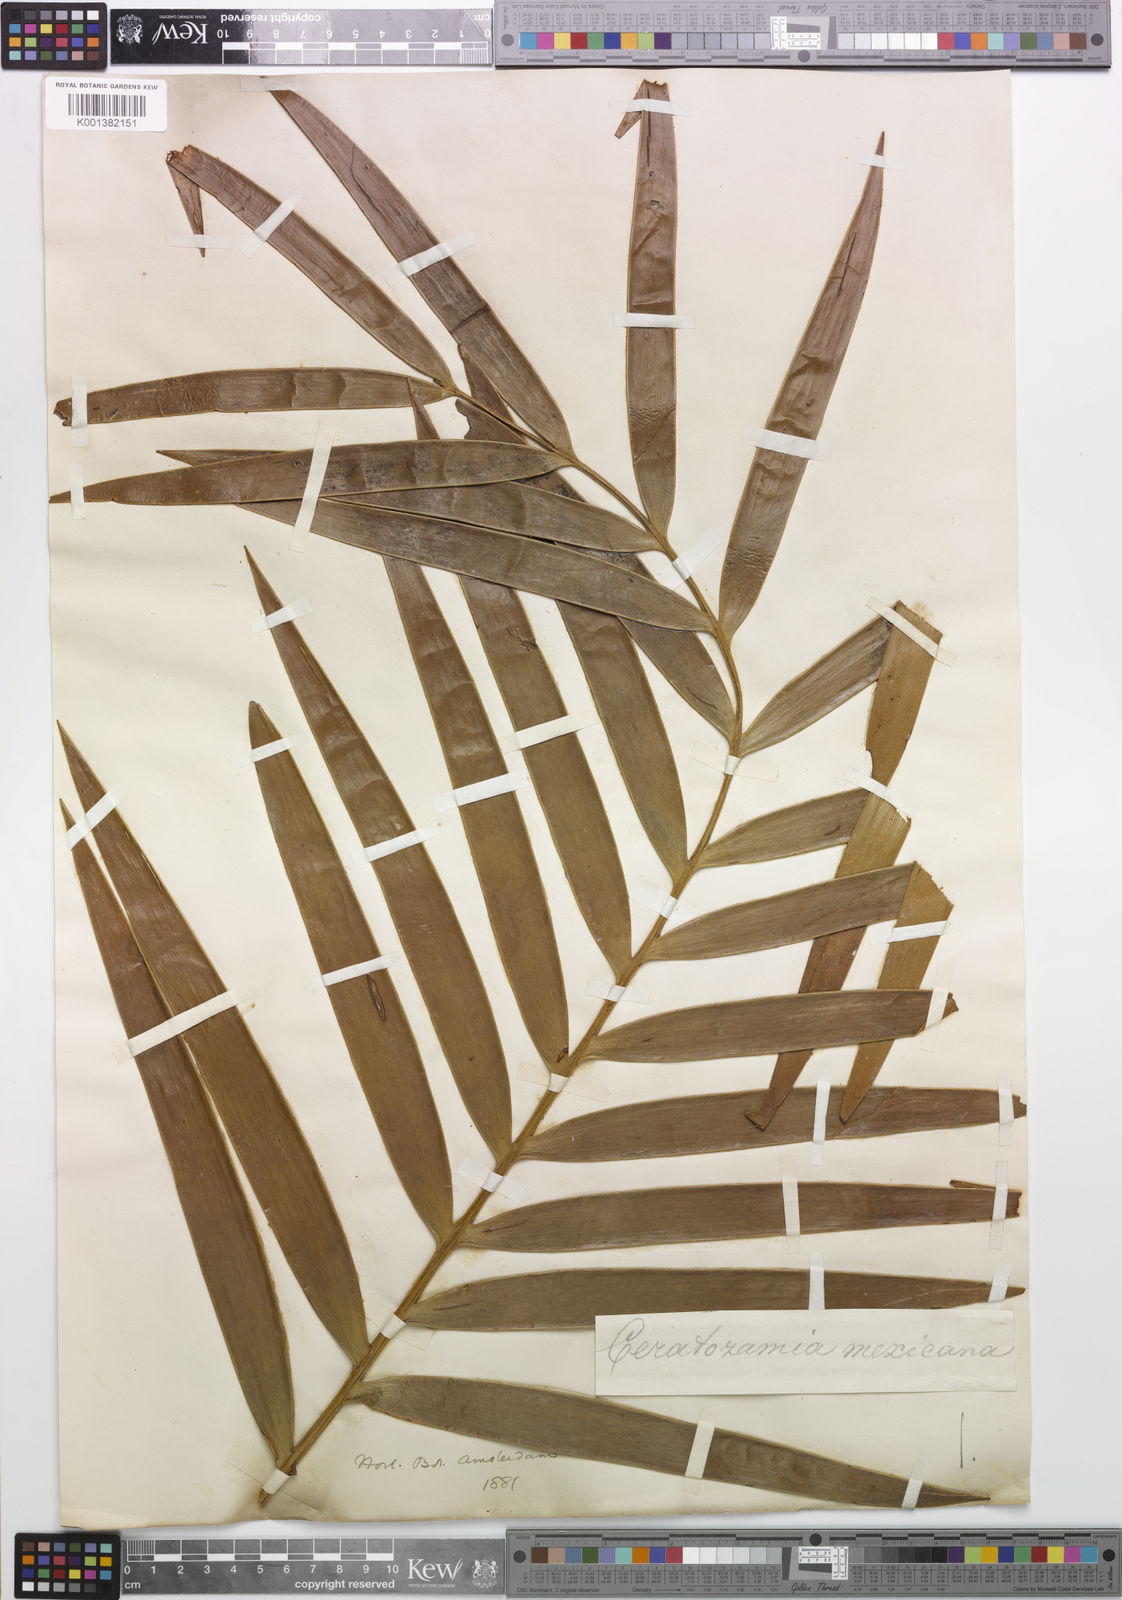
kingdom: Plantae
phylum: Tracheophyta
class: Cycadopsida
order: Cycadales
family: Zamiaceae
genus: Ceratozamia
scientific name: Ceratozamia mexicana
